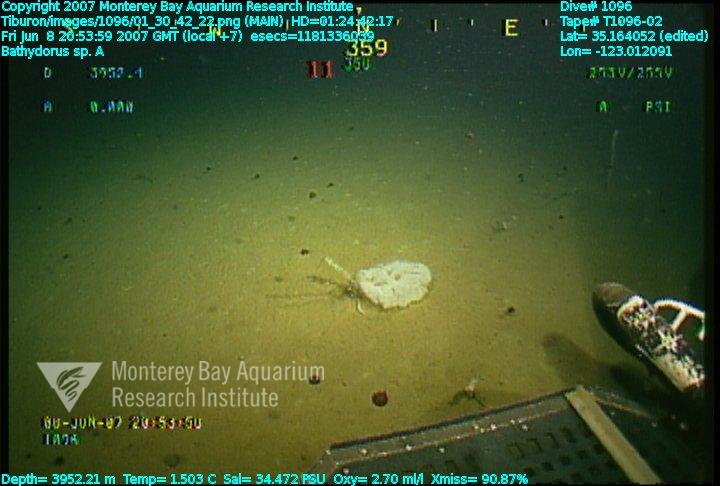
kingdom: Animalia
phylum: Porifera
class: Hexactinellida
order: Lyssacinosida
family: Rossellidae
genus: Bathydorus
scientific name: Bathydorus laniger
